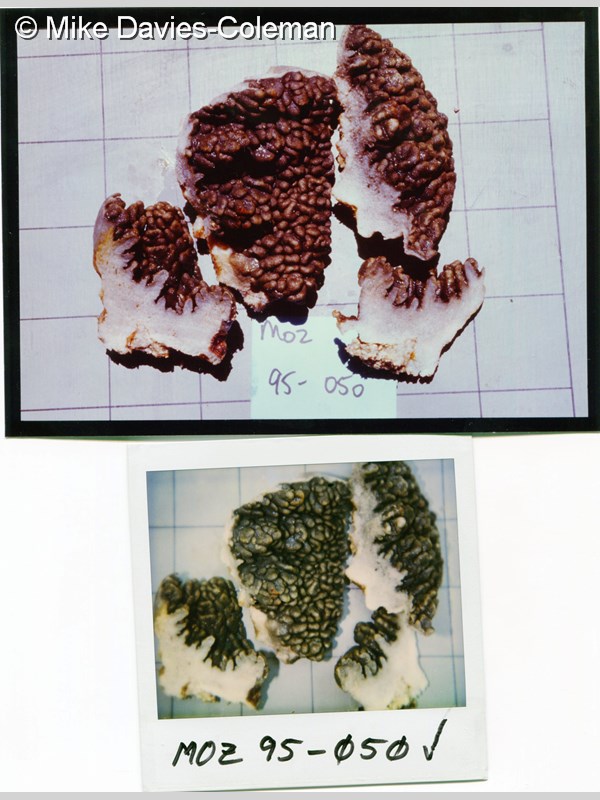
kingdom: Animalia
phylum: Cnidaria
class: Anthozoa
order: Malacalcyonacea
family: Sarcophytidae
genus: Sclerophytum
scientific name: Sclerophytum gravis
